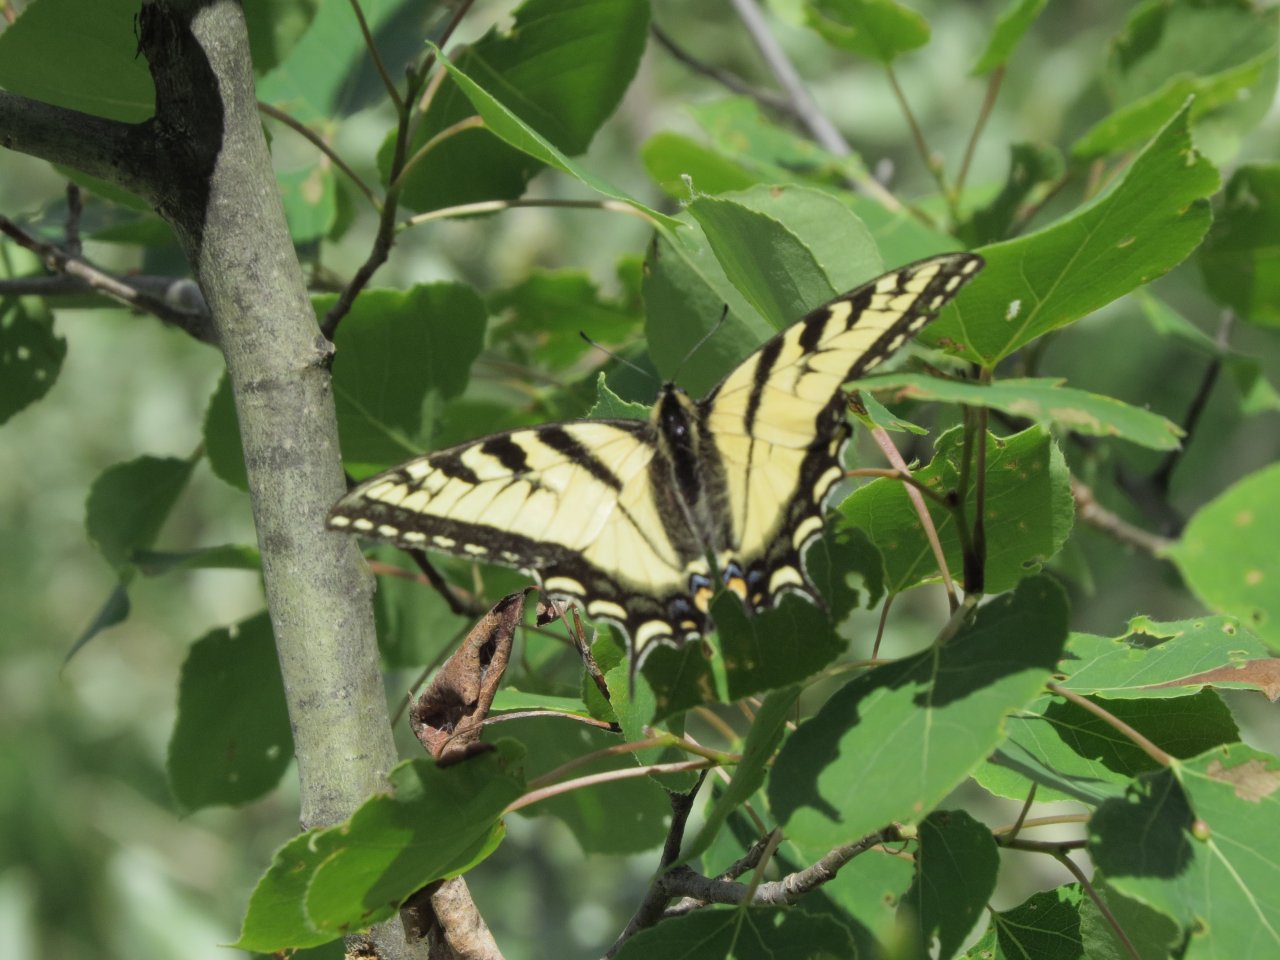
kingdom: Animalia
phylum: Arthropoda
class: Insecta
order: Lepidoptera
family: Papilionidae
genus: Pterourus
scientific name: Pterourus canadensis
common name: Canadian Tiger Swallowtail
